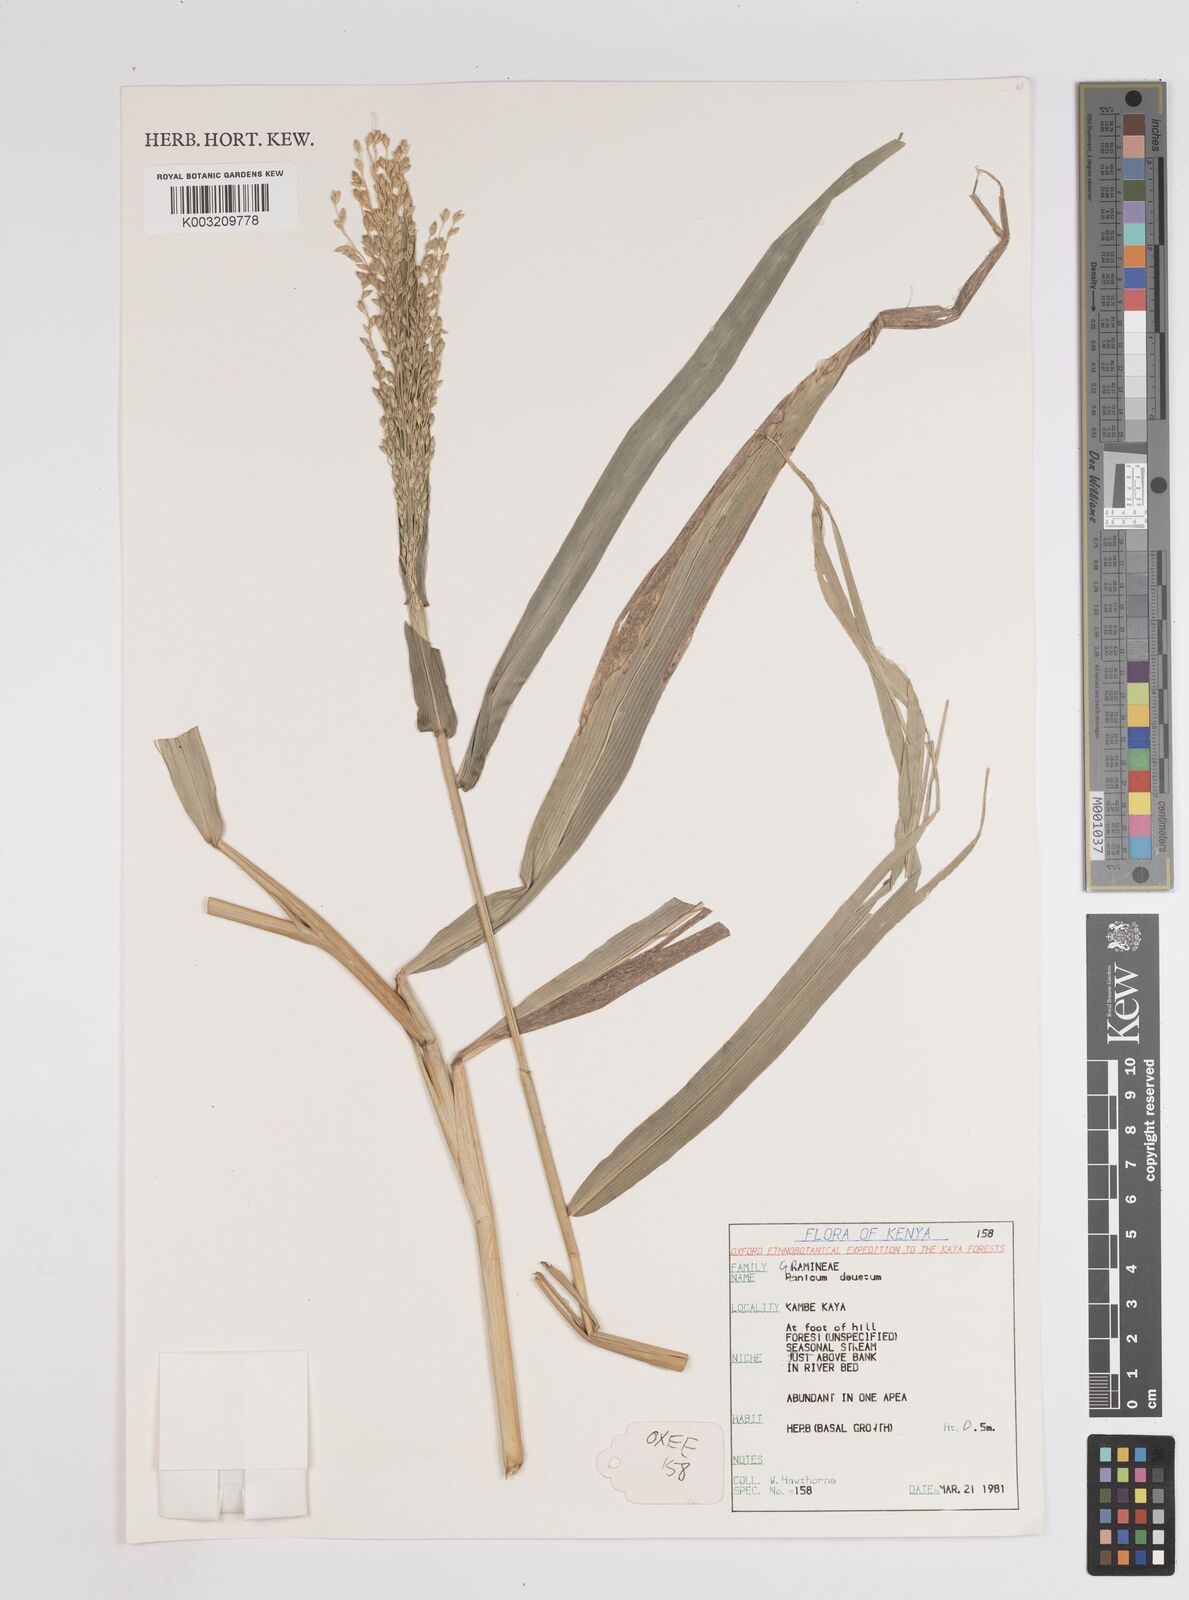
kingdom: Plantae
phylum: Tracheophyta
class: Liliopsida
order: Poales
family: Poaceae
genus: Panicum
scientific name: Panicum
